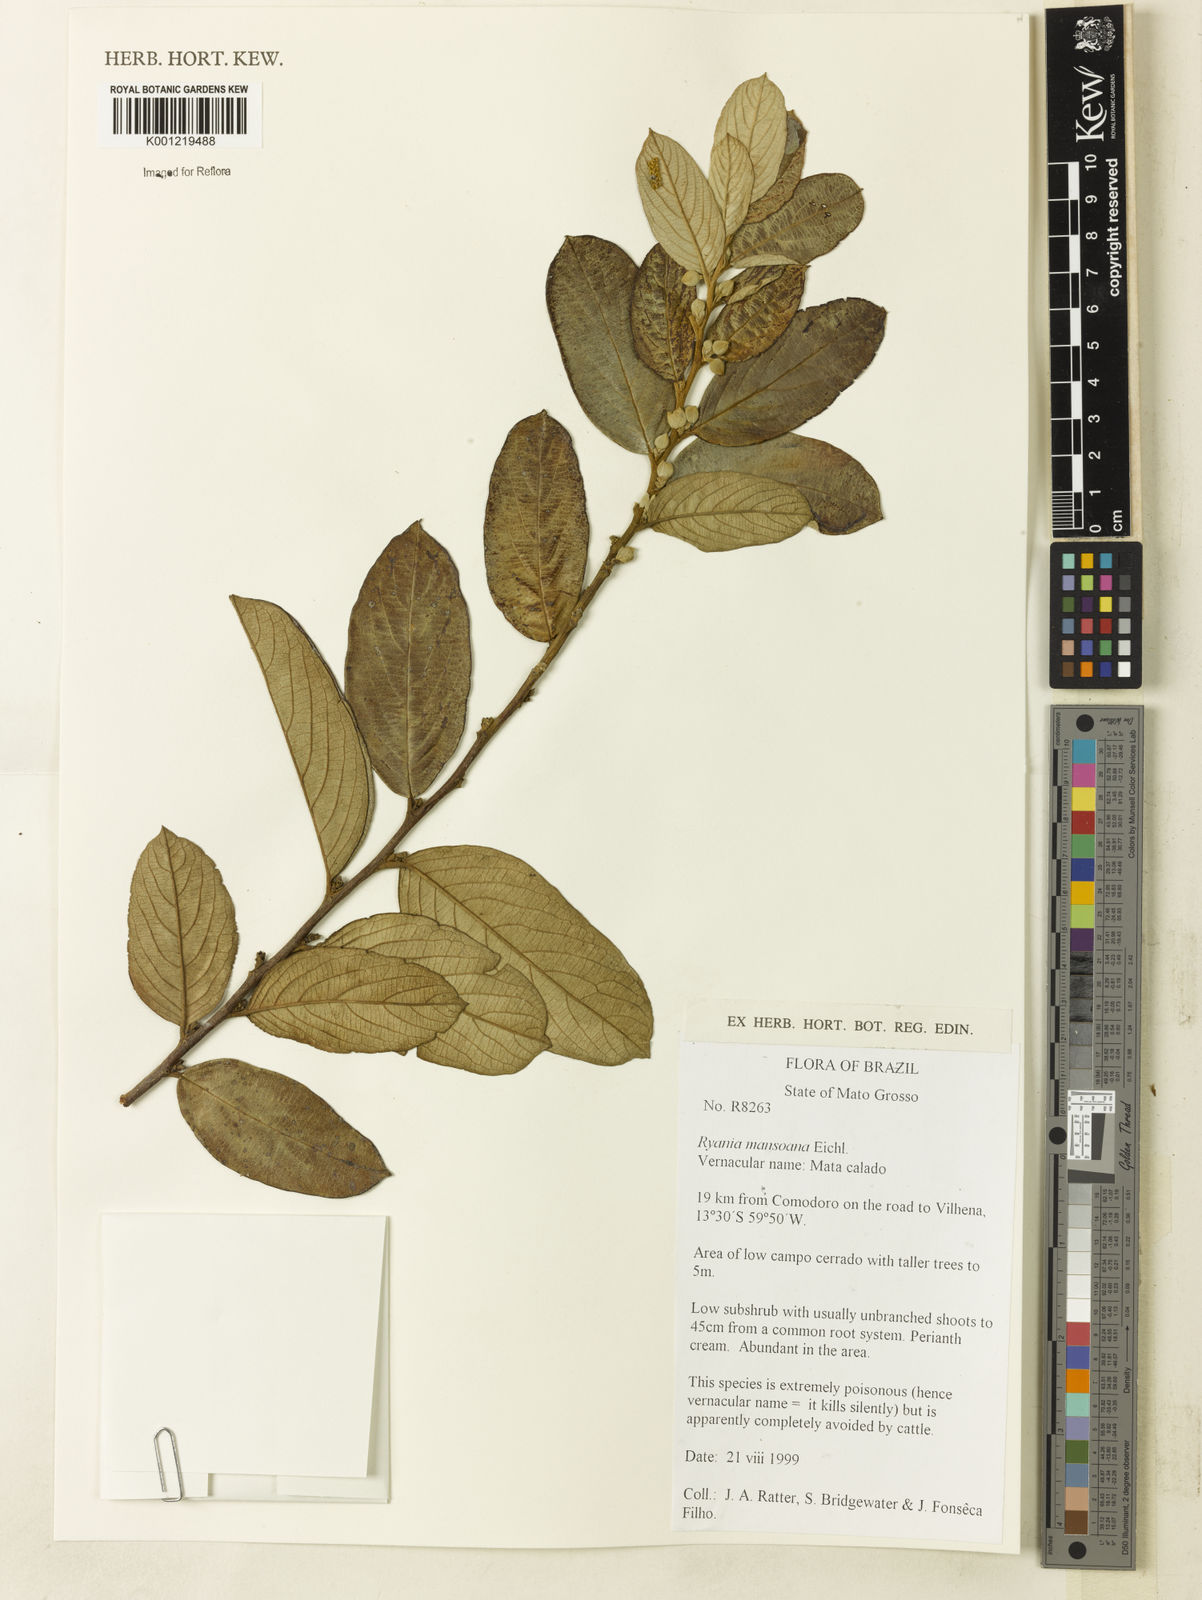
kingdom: Plantae
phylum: Tracheophyta
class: Magnoliopsida
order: Malpighiales
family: Salicaceae
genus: Ryania
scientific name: Ryania mansoana
